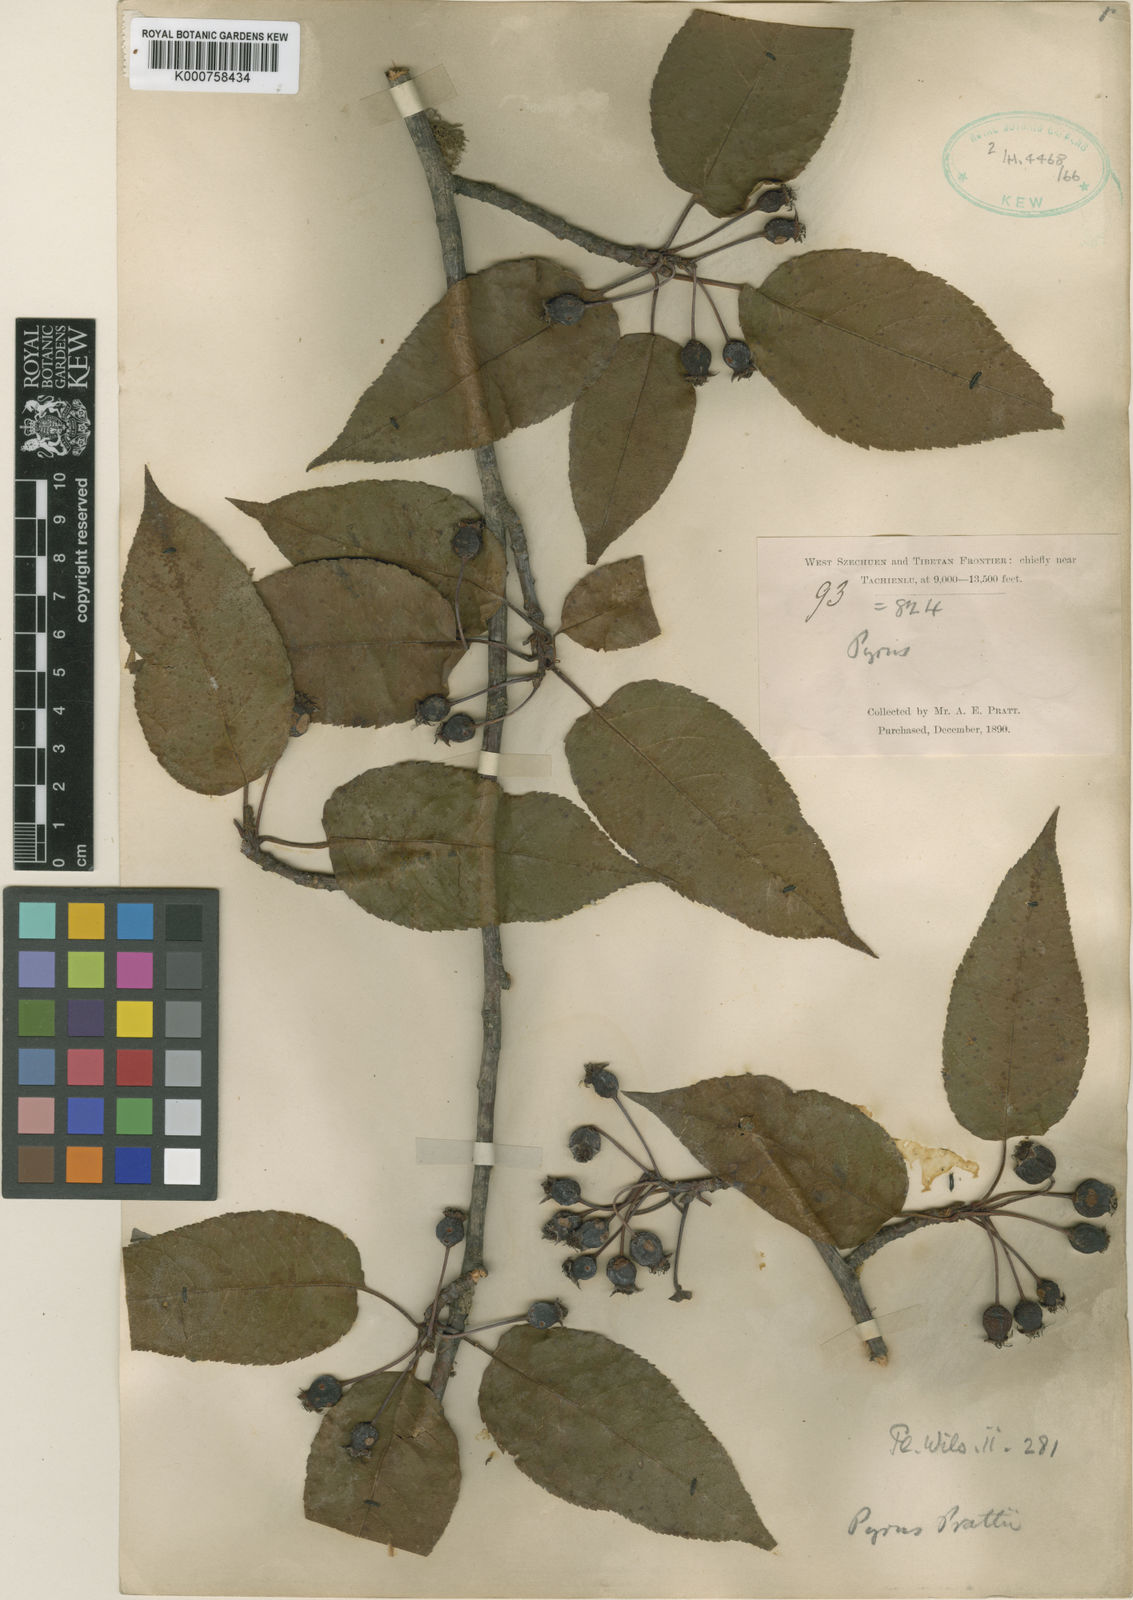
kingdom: Plantae
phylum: Tracheophyta
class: Magnoliopsida
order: Rosales
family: Rosaceae
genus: Malus
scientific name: Malus prattii
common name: Pratt apple
